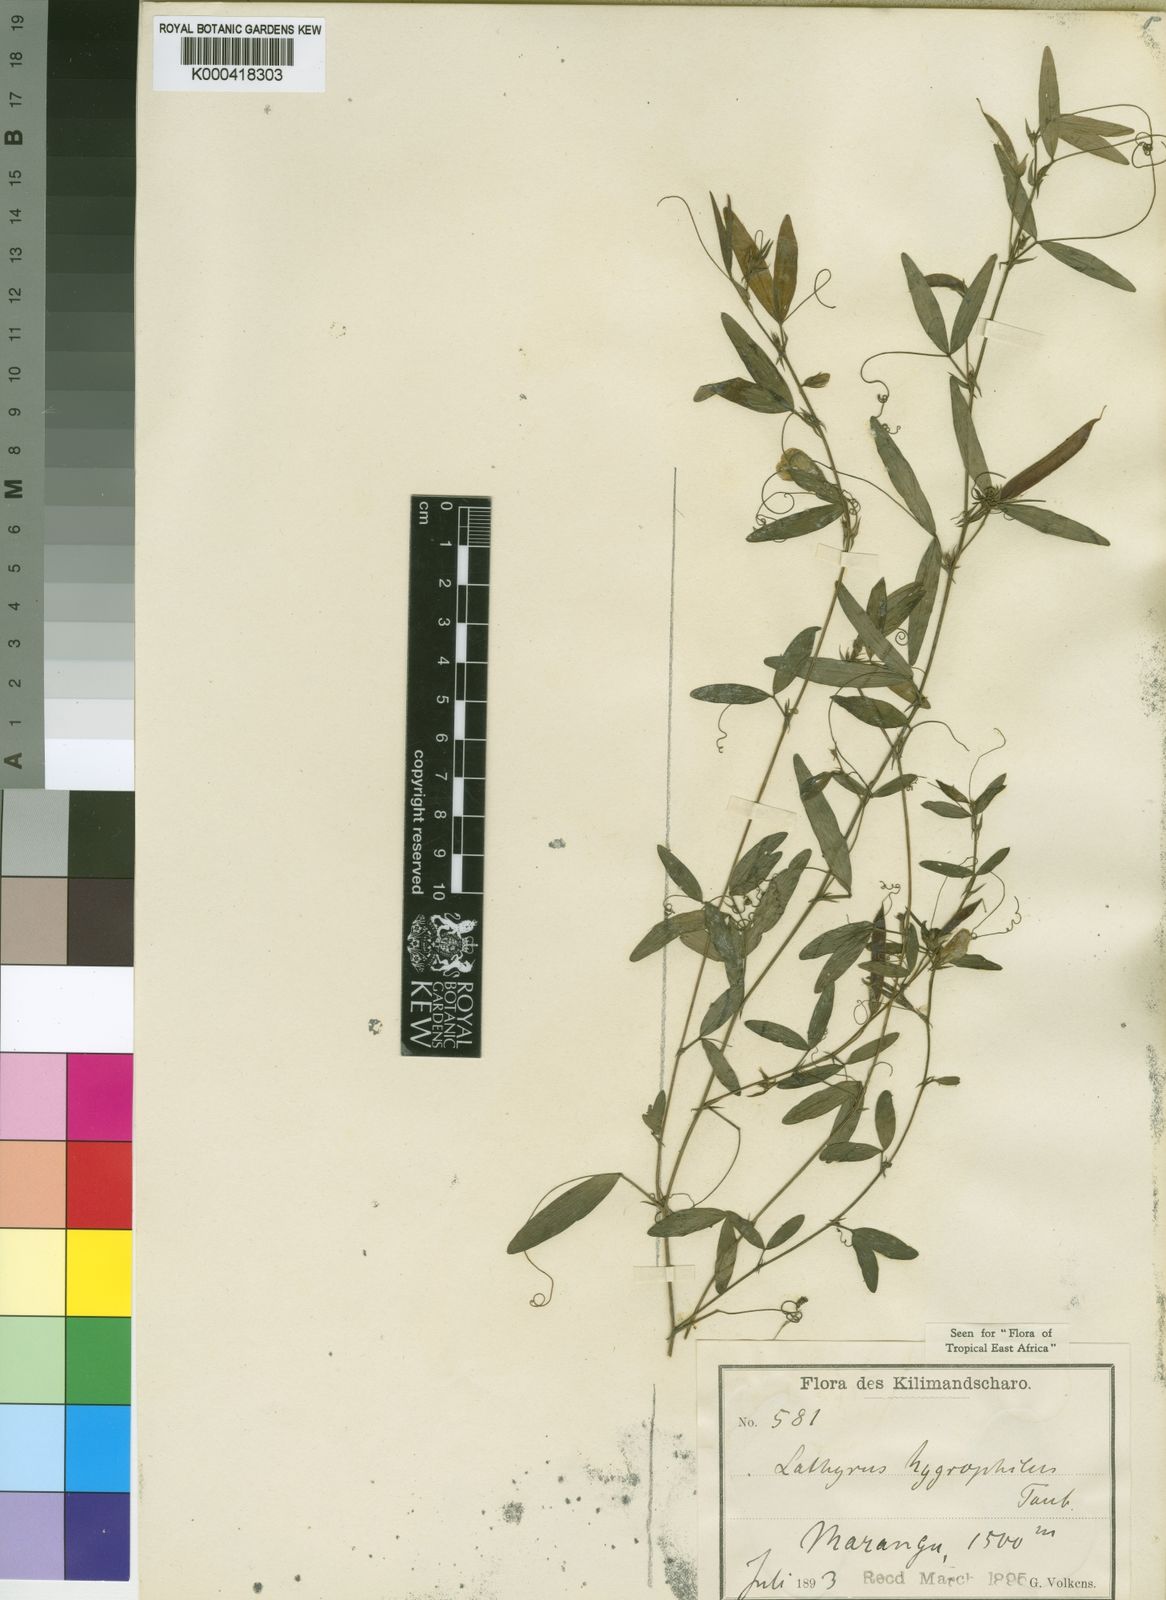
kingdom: Plantae
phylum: Tracheophyta
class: Magnoliopsida
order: Fabales
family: Fabaceae
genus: Lathyrus
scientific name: Lathyrus hygrophilus
